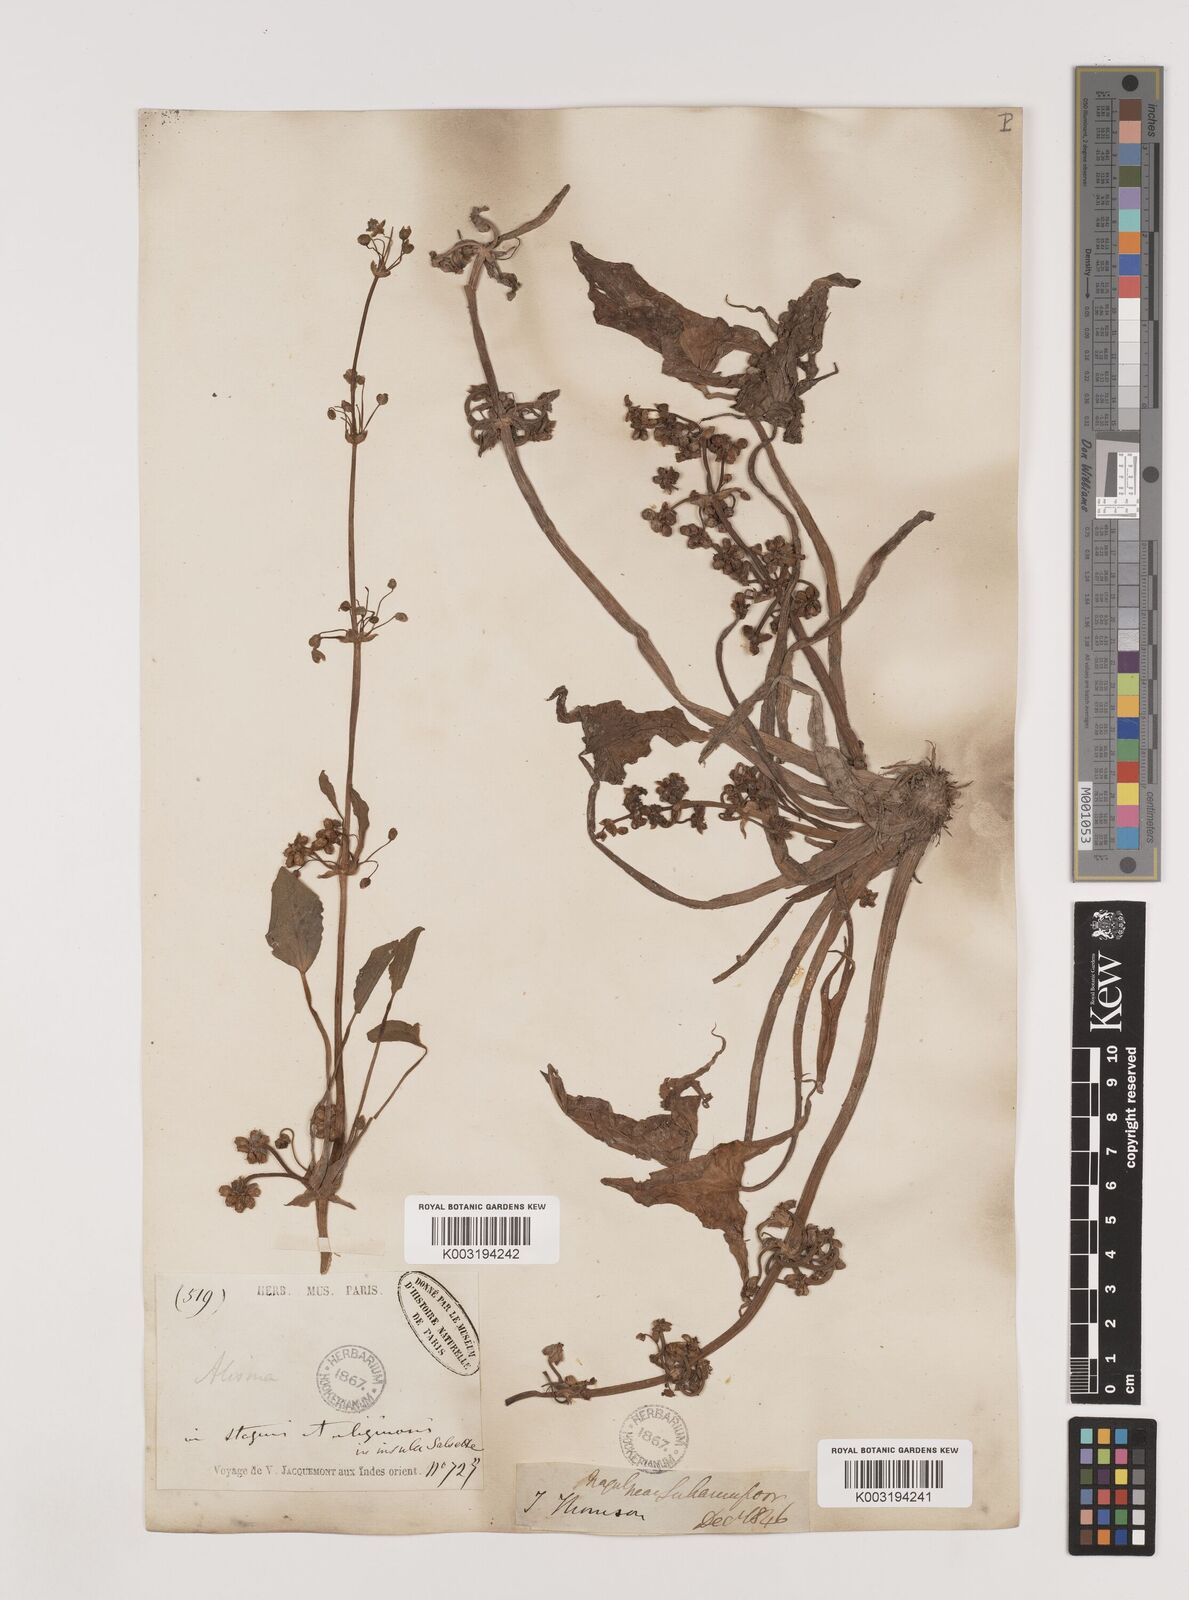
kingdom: Plantae
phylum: Tracheophyta
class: Liliopsida
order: Alismatales
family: Alismataceae
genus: Limnophyton
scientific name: Limnophyton obtusifolium
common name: Arrow head
